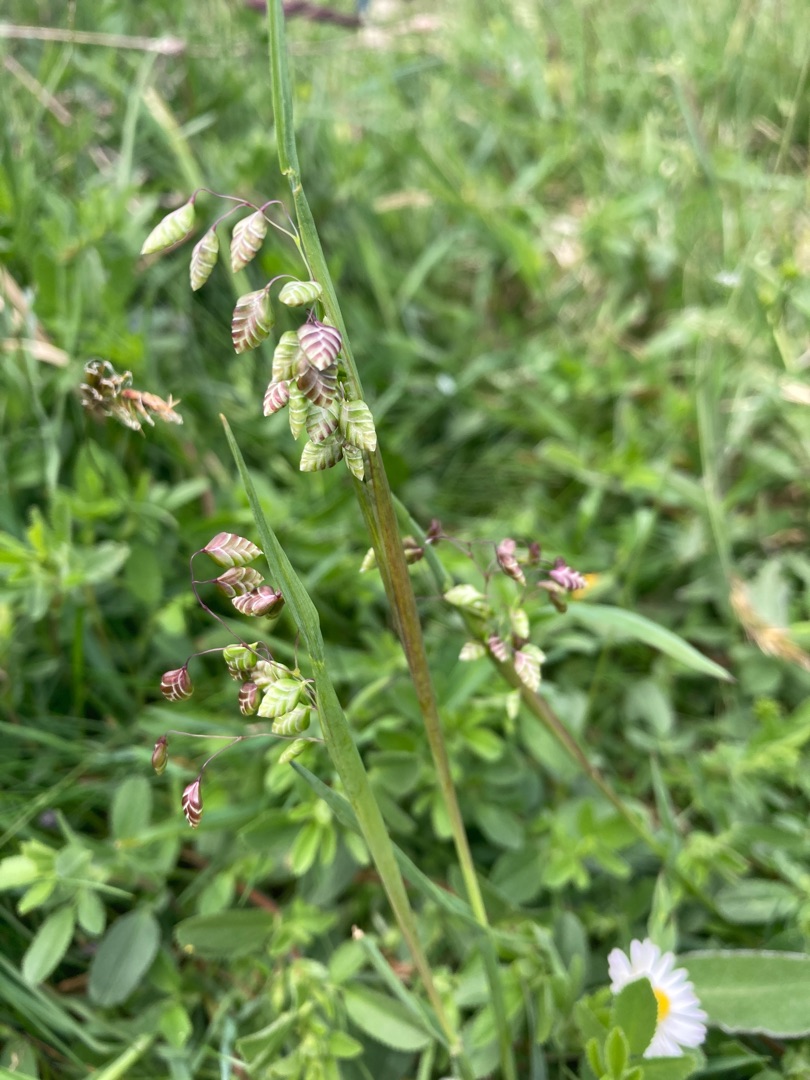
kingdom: Plantae
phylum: Tracheophyta
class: Liliopsida
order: Poales
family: Poaceae
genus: Briza
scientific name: Briza media
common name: Hjertegræs
